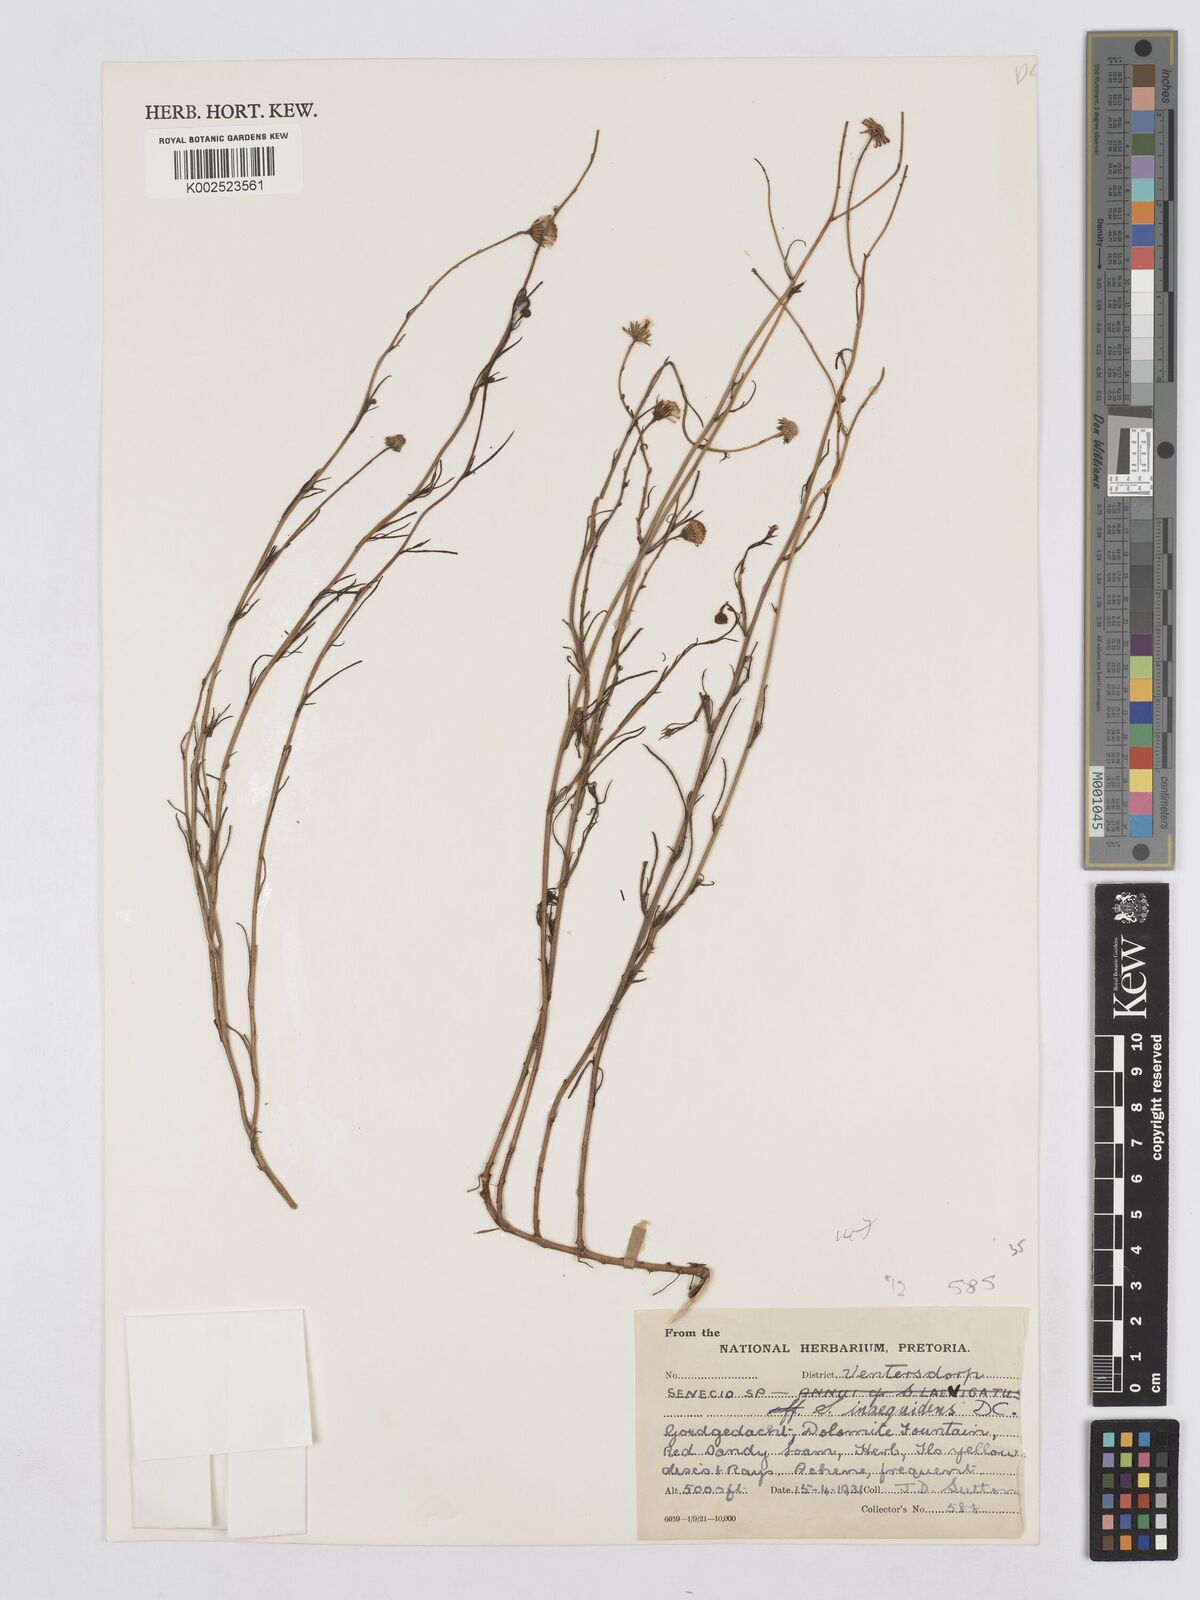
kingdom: Plantae
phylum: Tracheophyta
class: Magnoliopsida
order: Asterales
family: Asteraceae
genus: Senecio
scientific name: Senecio inaequidens
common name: Narrow-leaved ragwort
